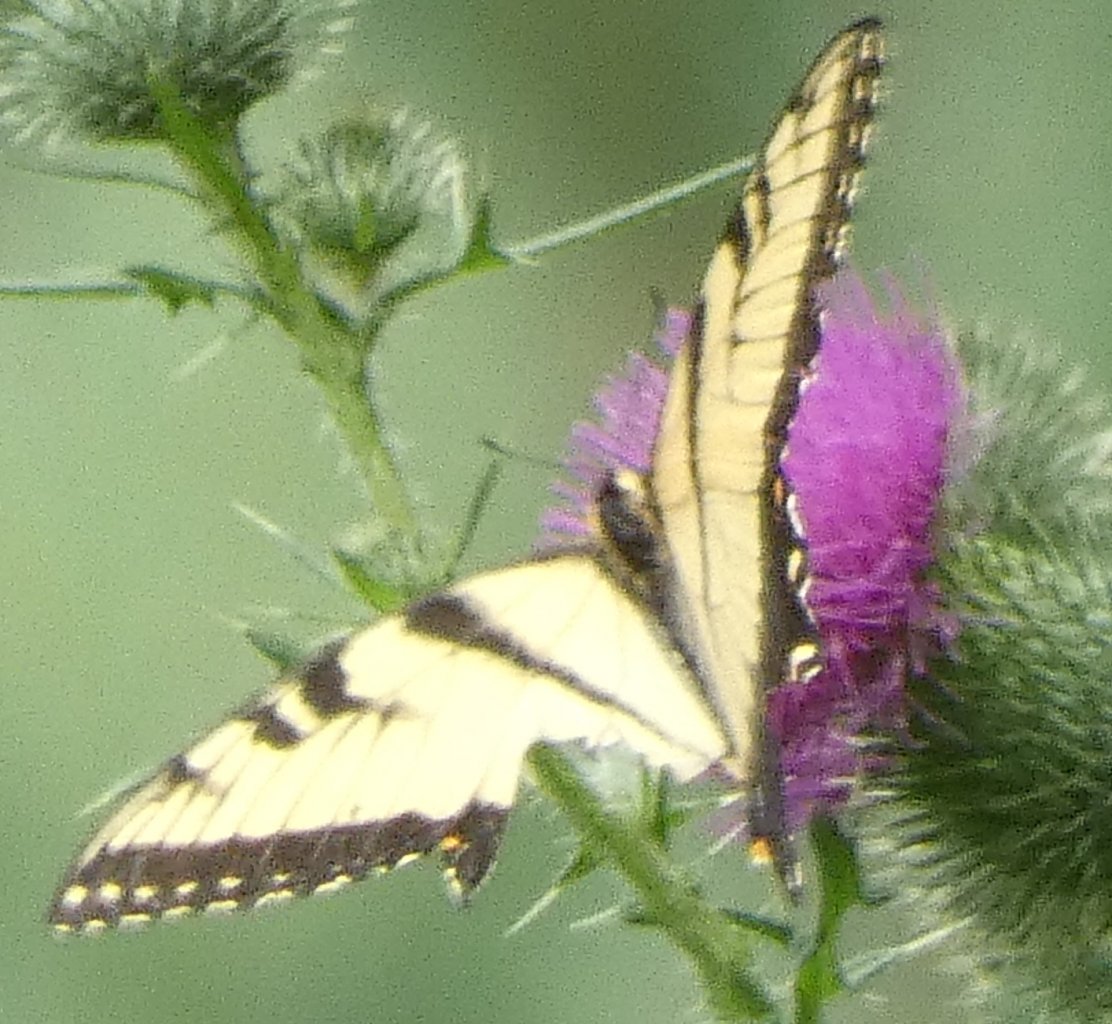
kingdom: Animalia
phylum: Arthropoda
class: Insecta
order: Lepidoptera
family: Papilionidae
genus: Pterourus
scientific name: Pterourus glaucus
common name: Eastern Tiger Swallowtail
